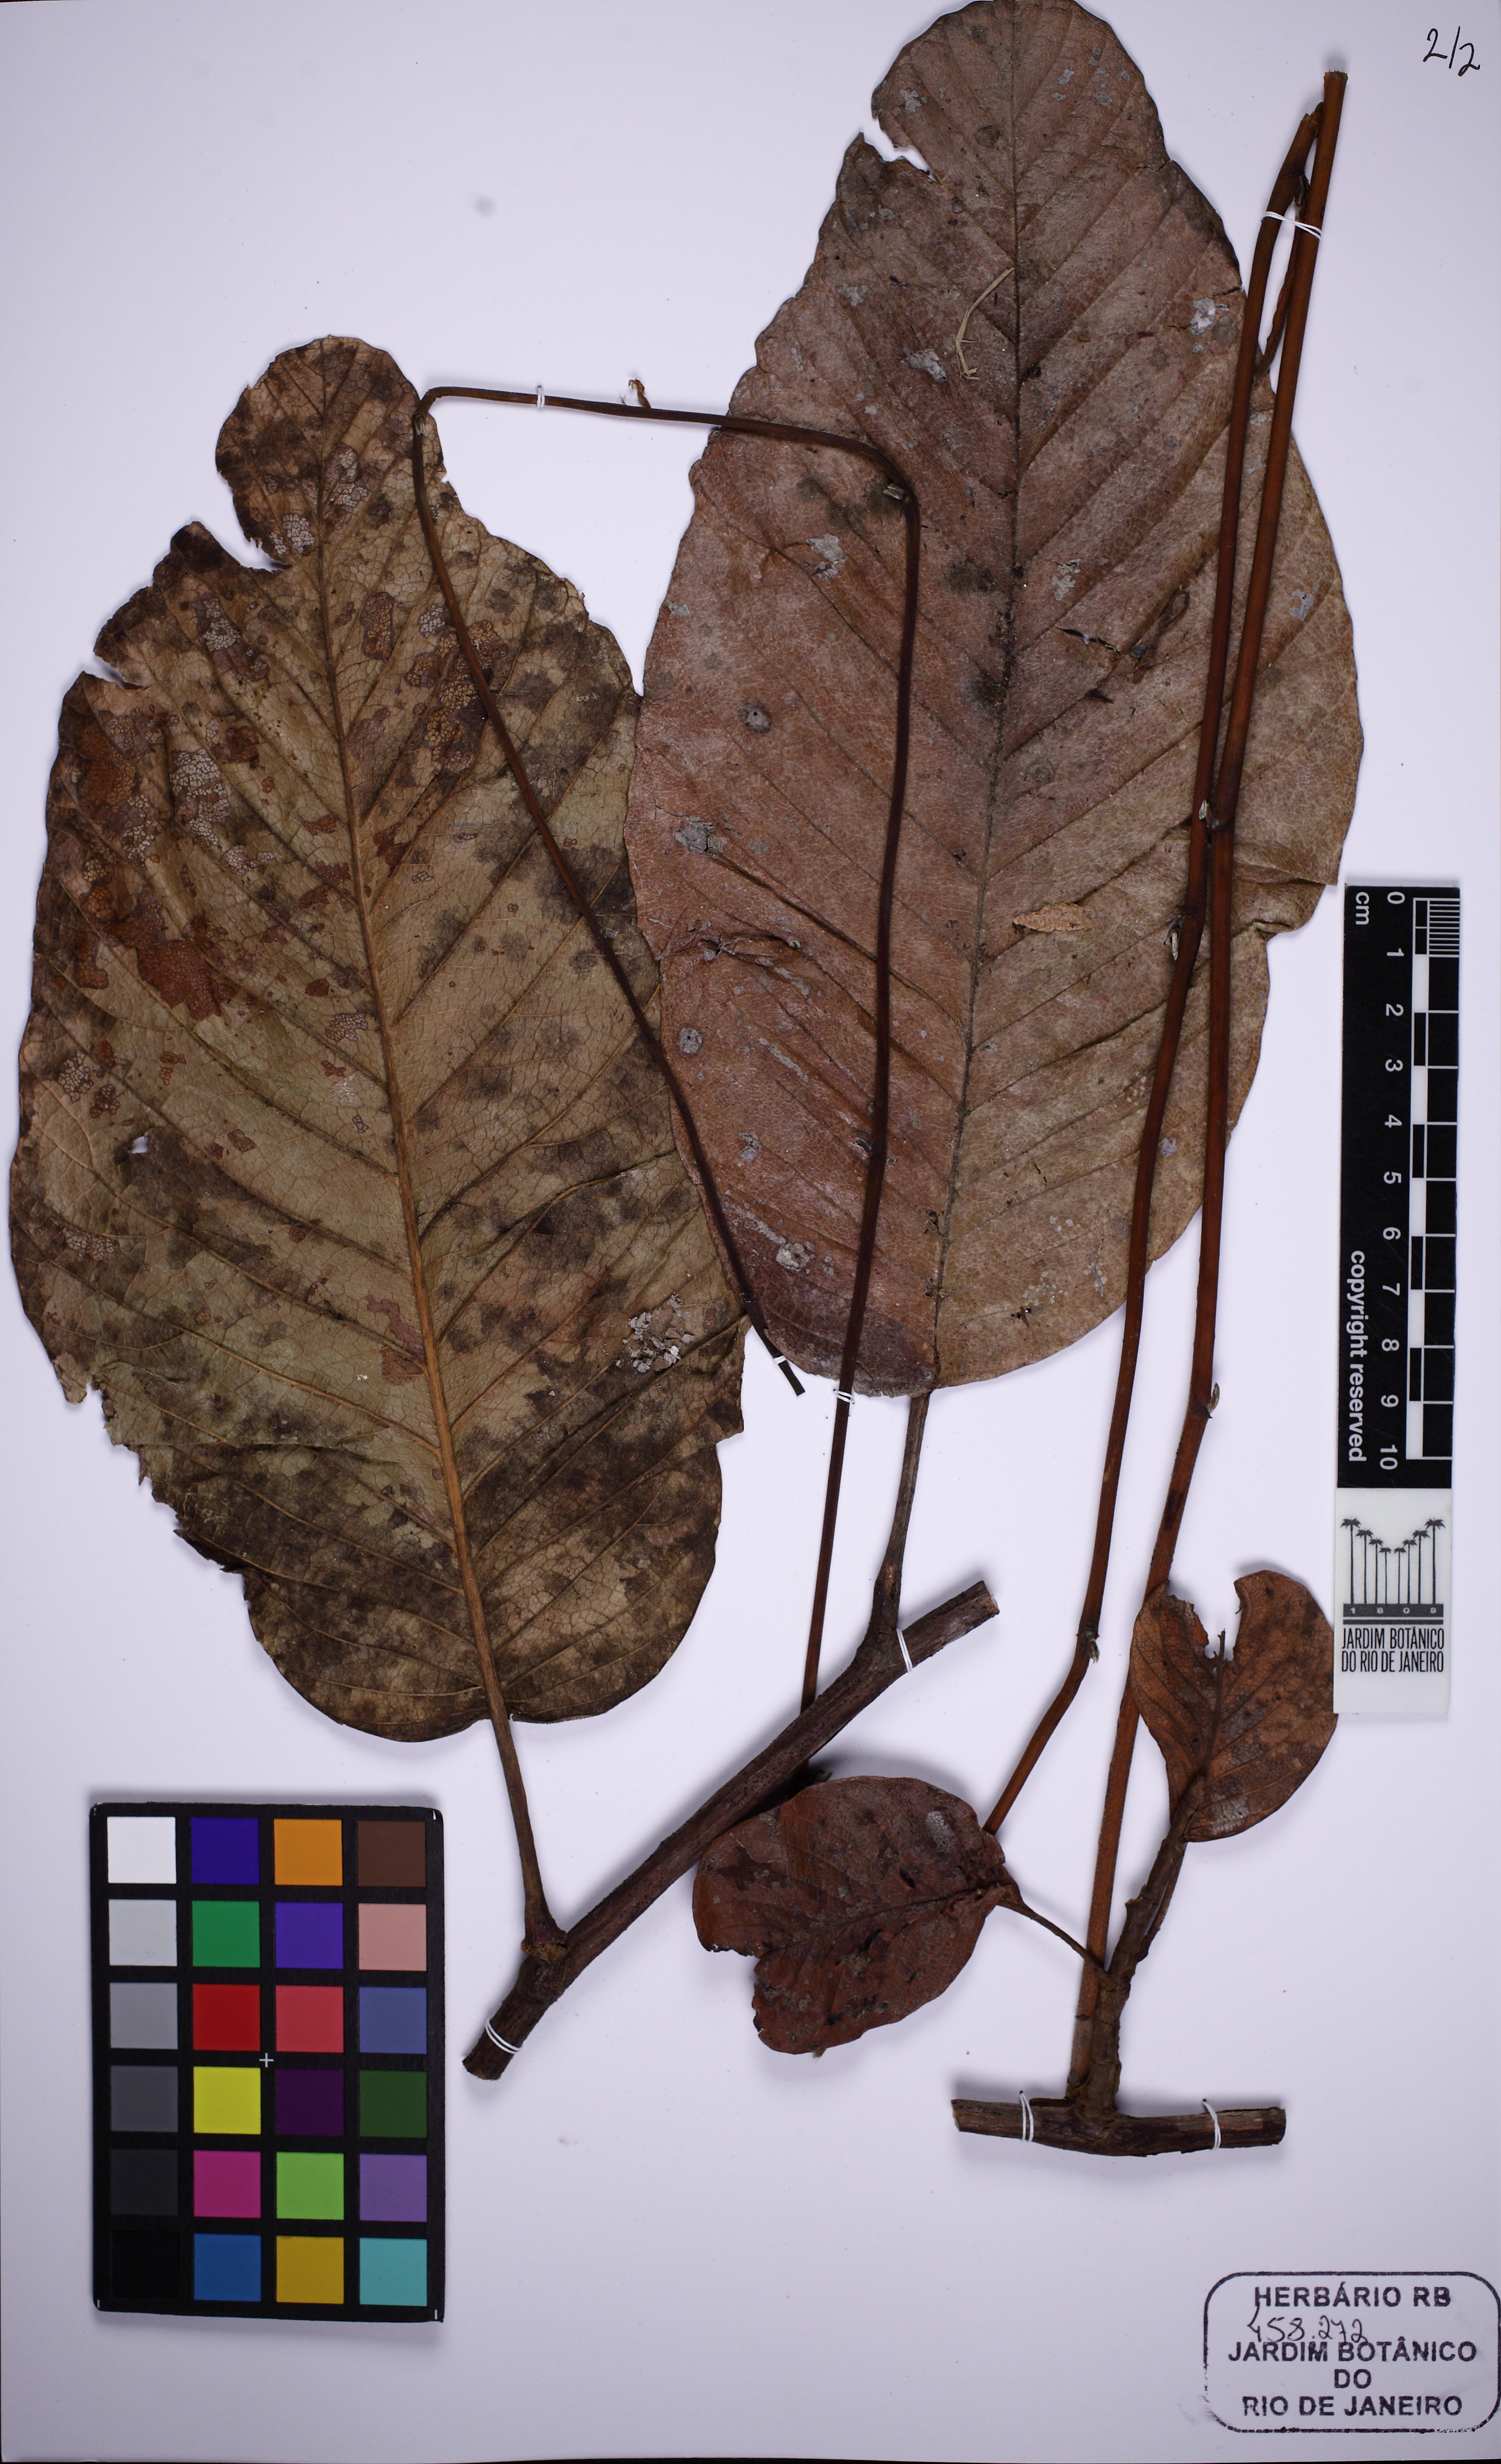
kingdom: Plantae
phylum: Tracheophyta
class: Magnoliopsida
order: Dilleniales
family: Dilleniaceae
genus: Davilla
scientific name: Davilla cearensis
